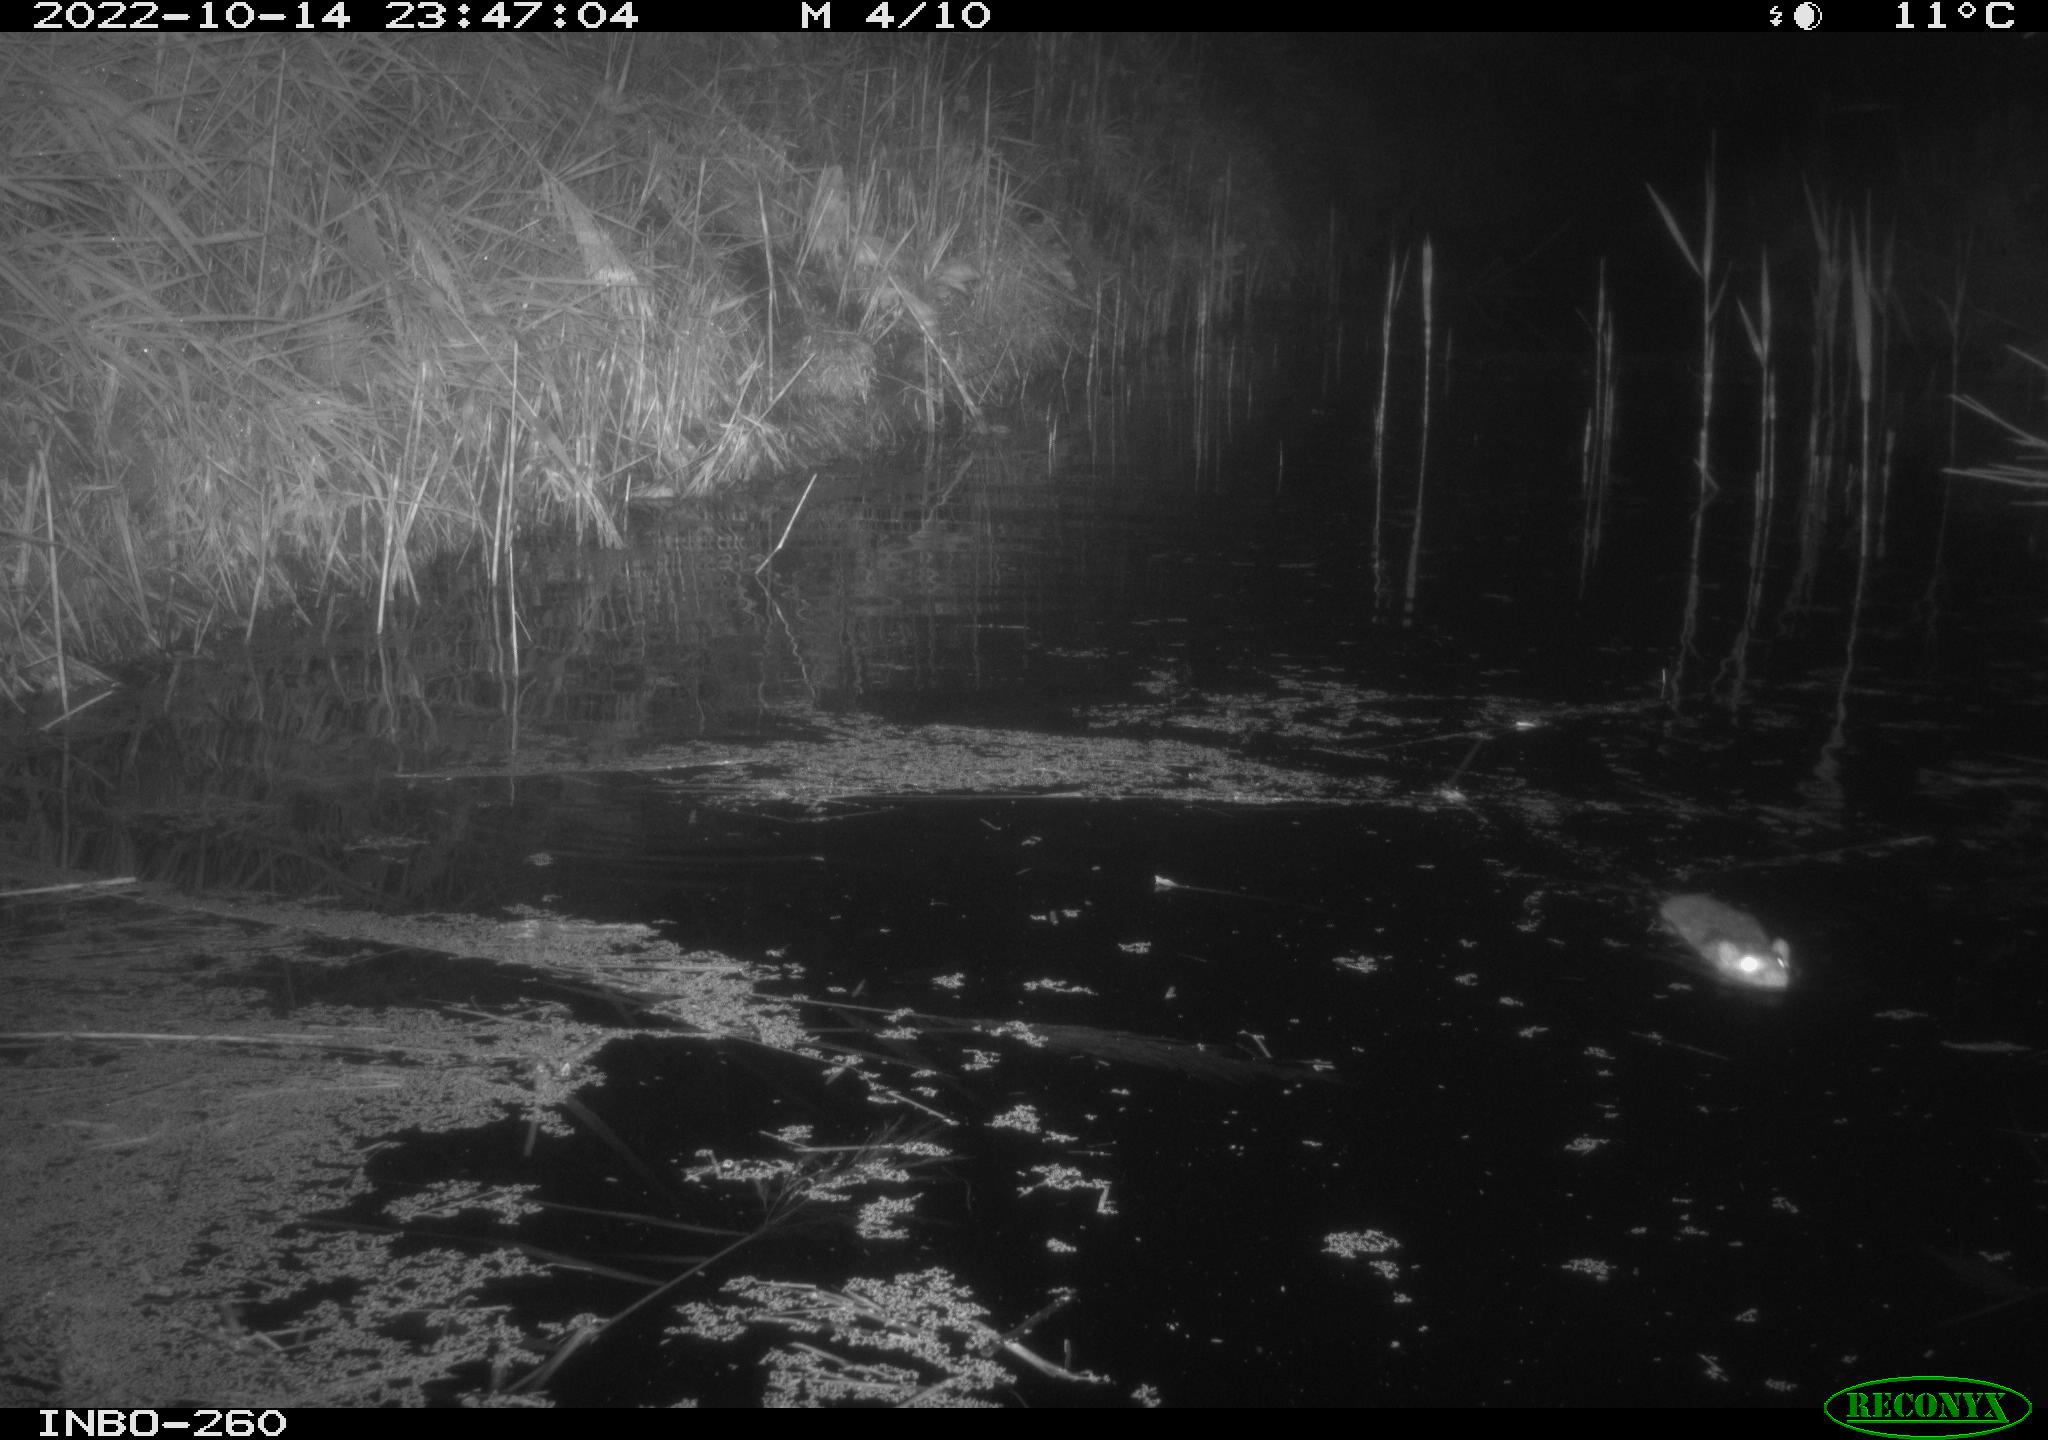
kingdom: Animalia
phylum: Chordata
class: Mammalia
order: Rodentia
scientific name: Rodentia
